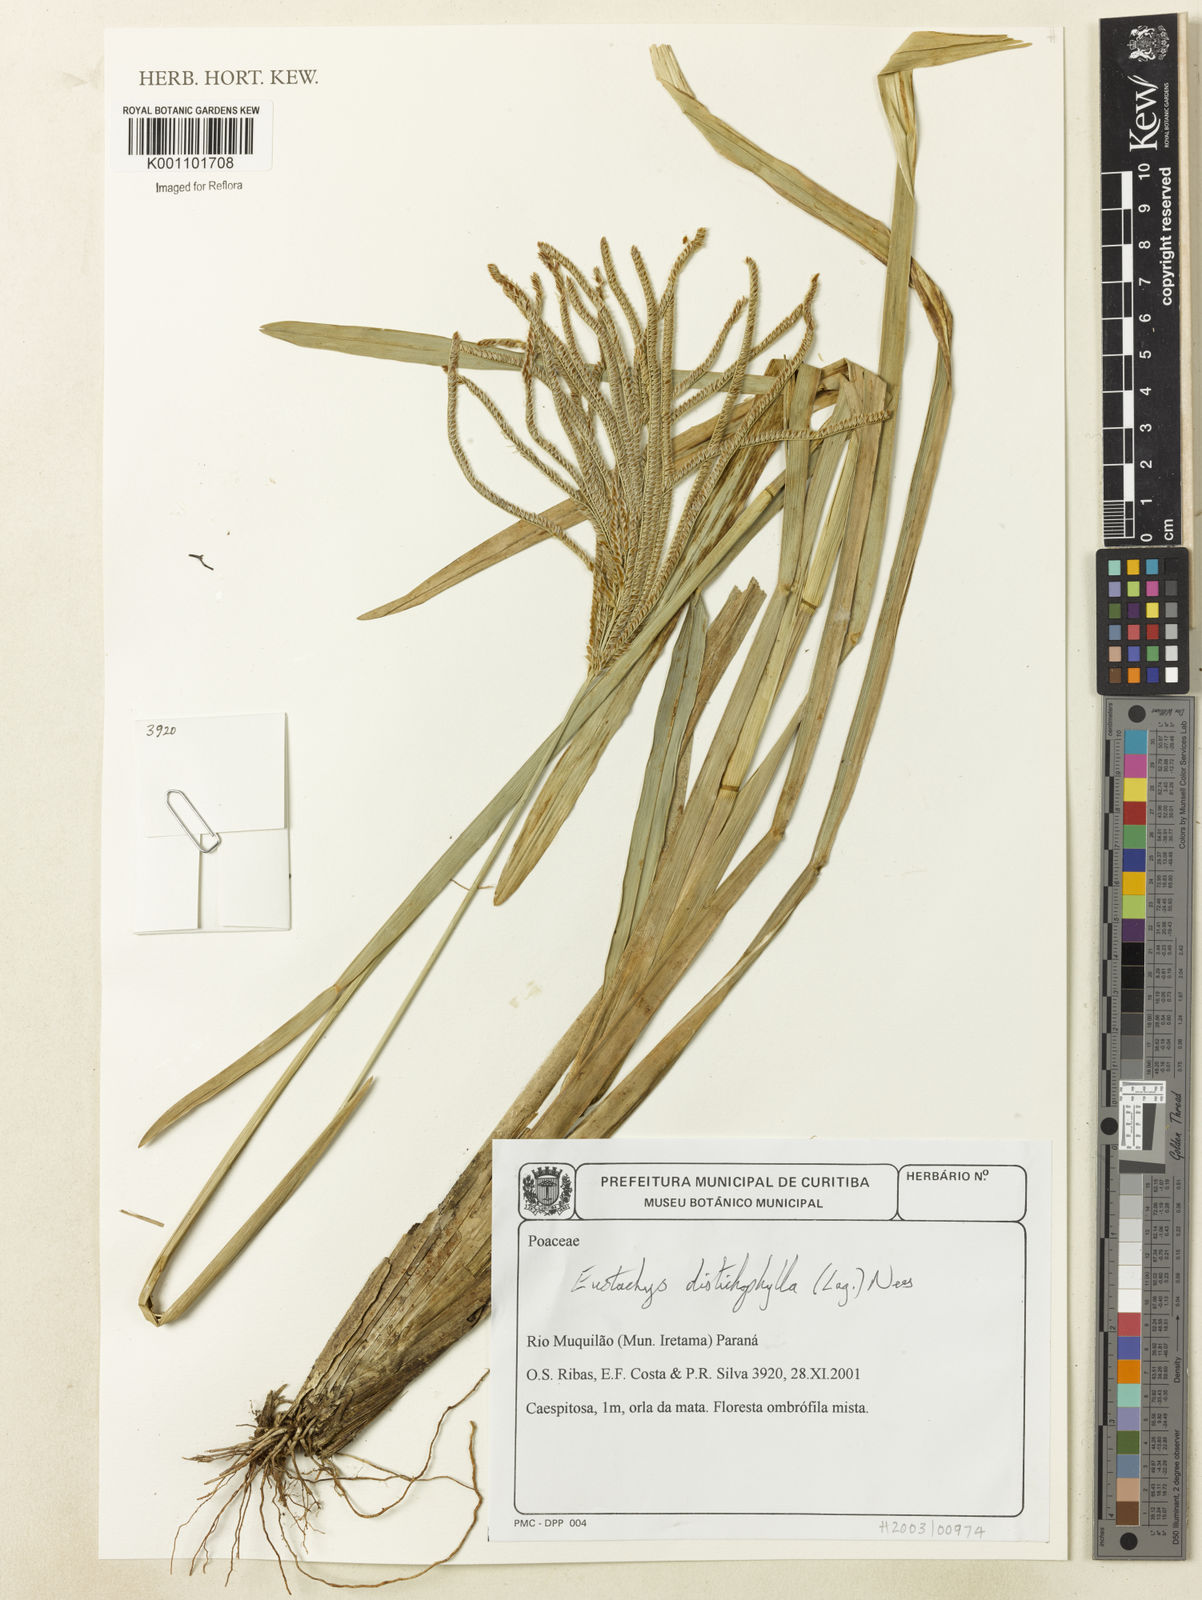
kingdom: Plantae
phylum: Tracheophyta
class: Liliopsida
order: Poales
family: Poaceae
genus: Eustachys
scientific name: Eustachys distichophylla
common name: Weeping fingergrass
